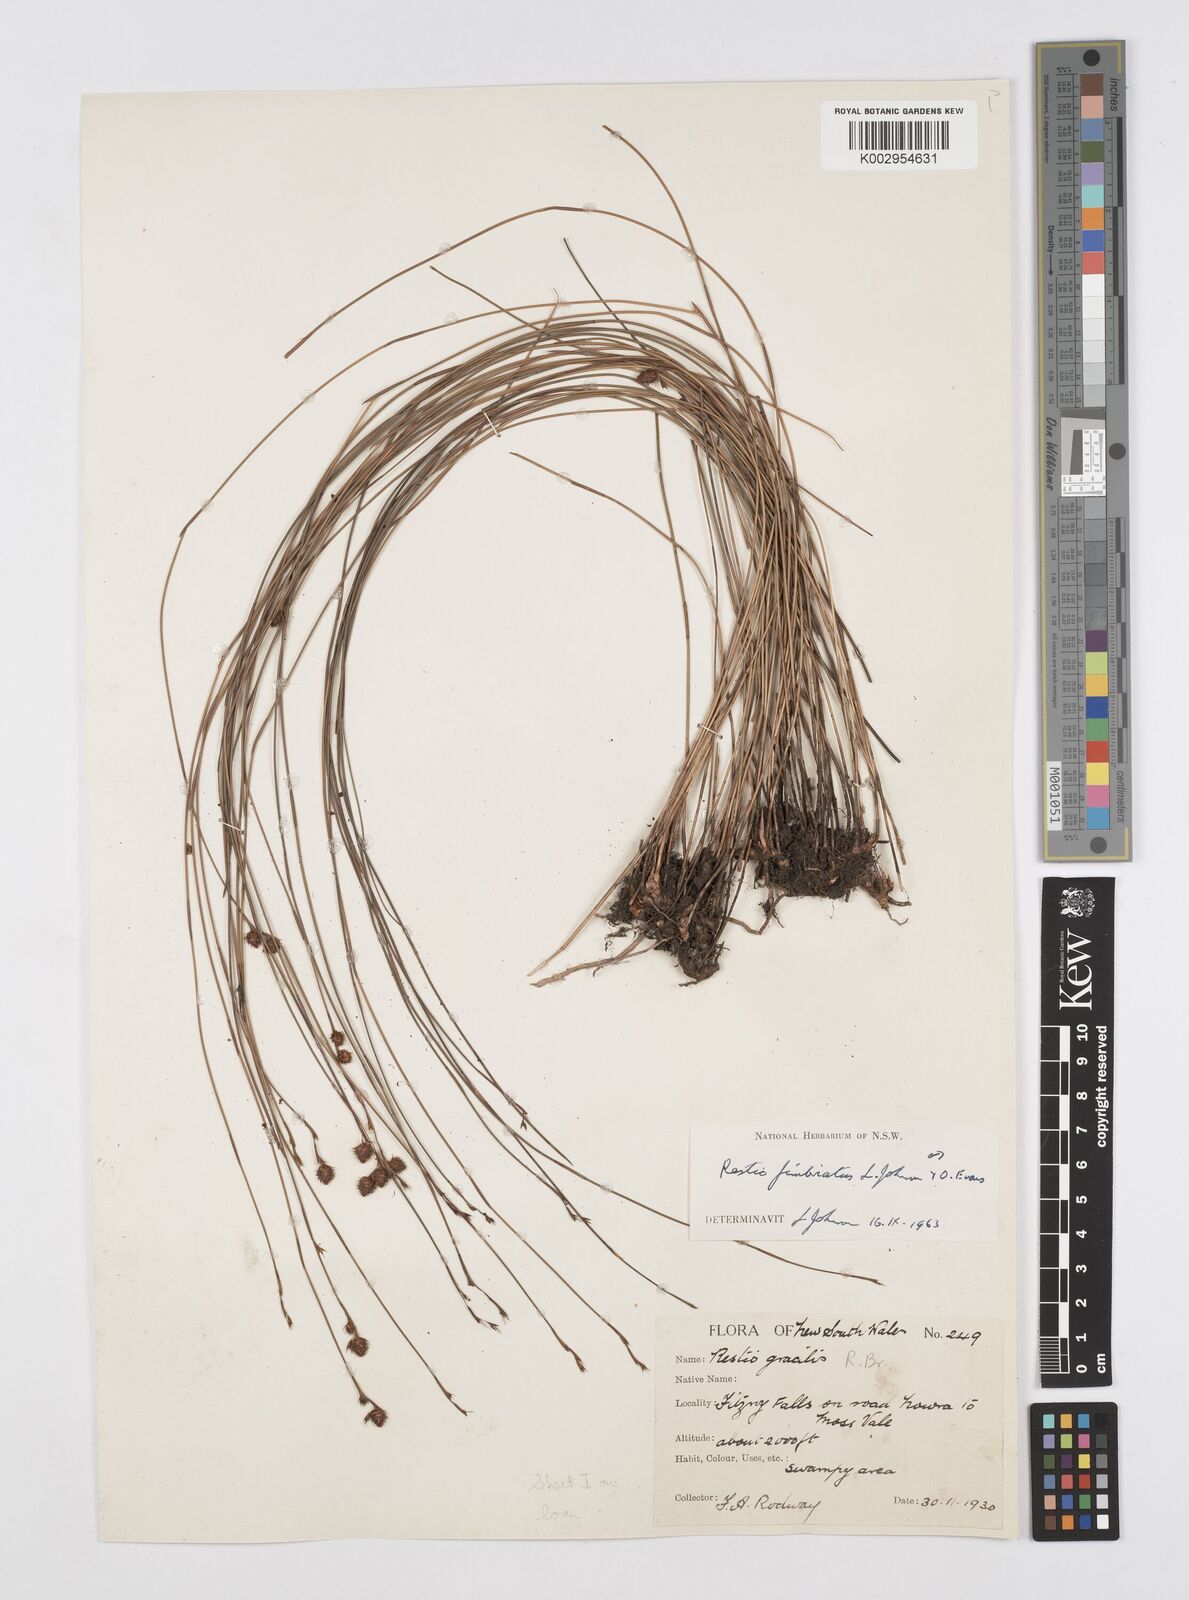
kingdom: Plantae
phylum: Tracheophyta
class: Liliopsida
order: Poales
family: Restionaceae
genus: Baloskion
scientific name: Baloskion fimbriatum
